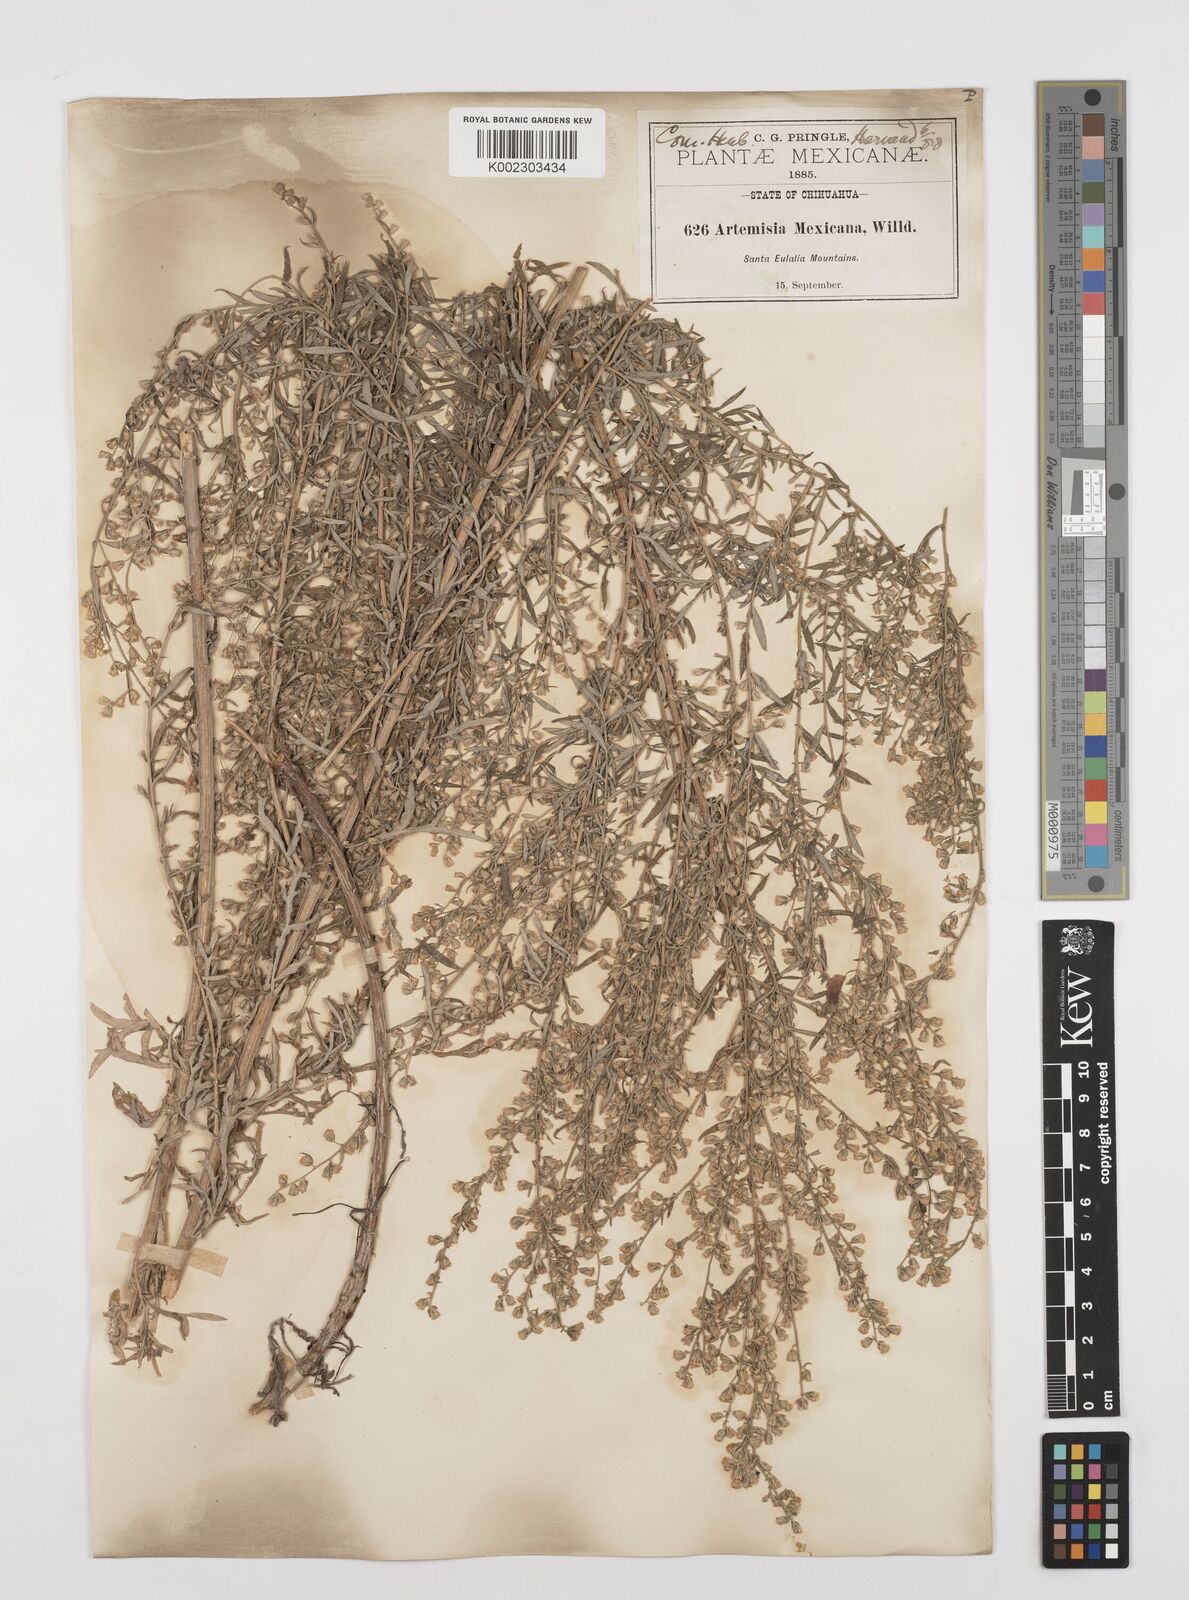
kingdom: Plantae
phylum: Tracheophyta
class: Magnoliopsida
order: Asterales
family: Asteraceae
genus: Artemisia
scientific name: Artemisia ludoviciana
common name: Western mugwort
